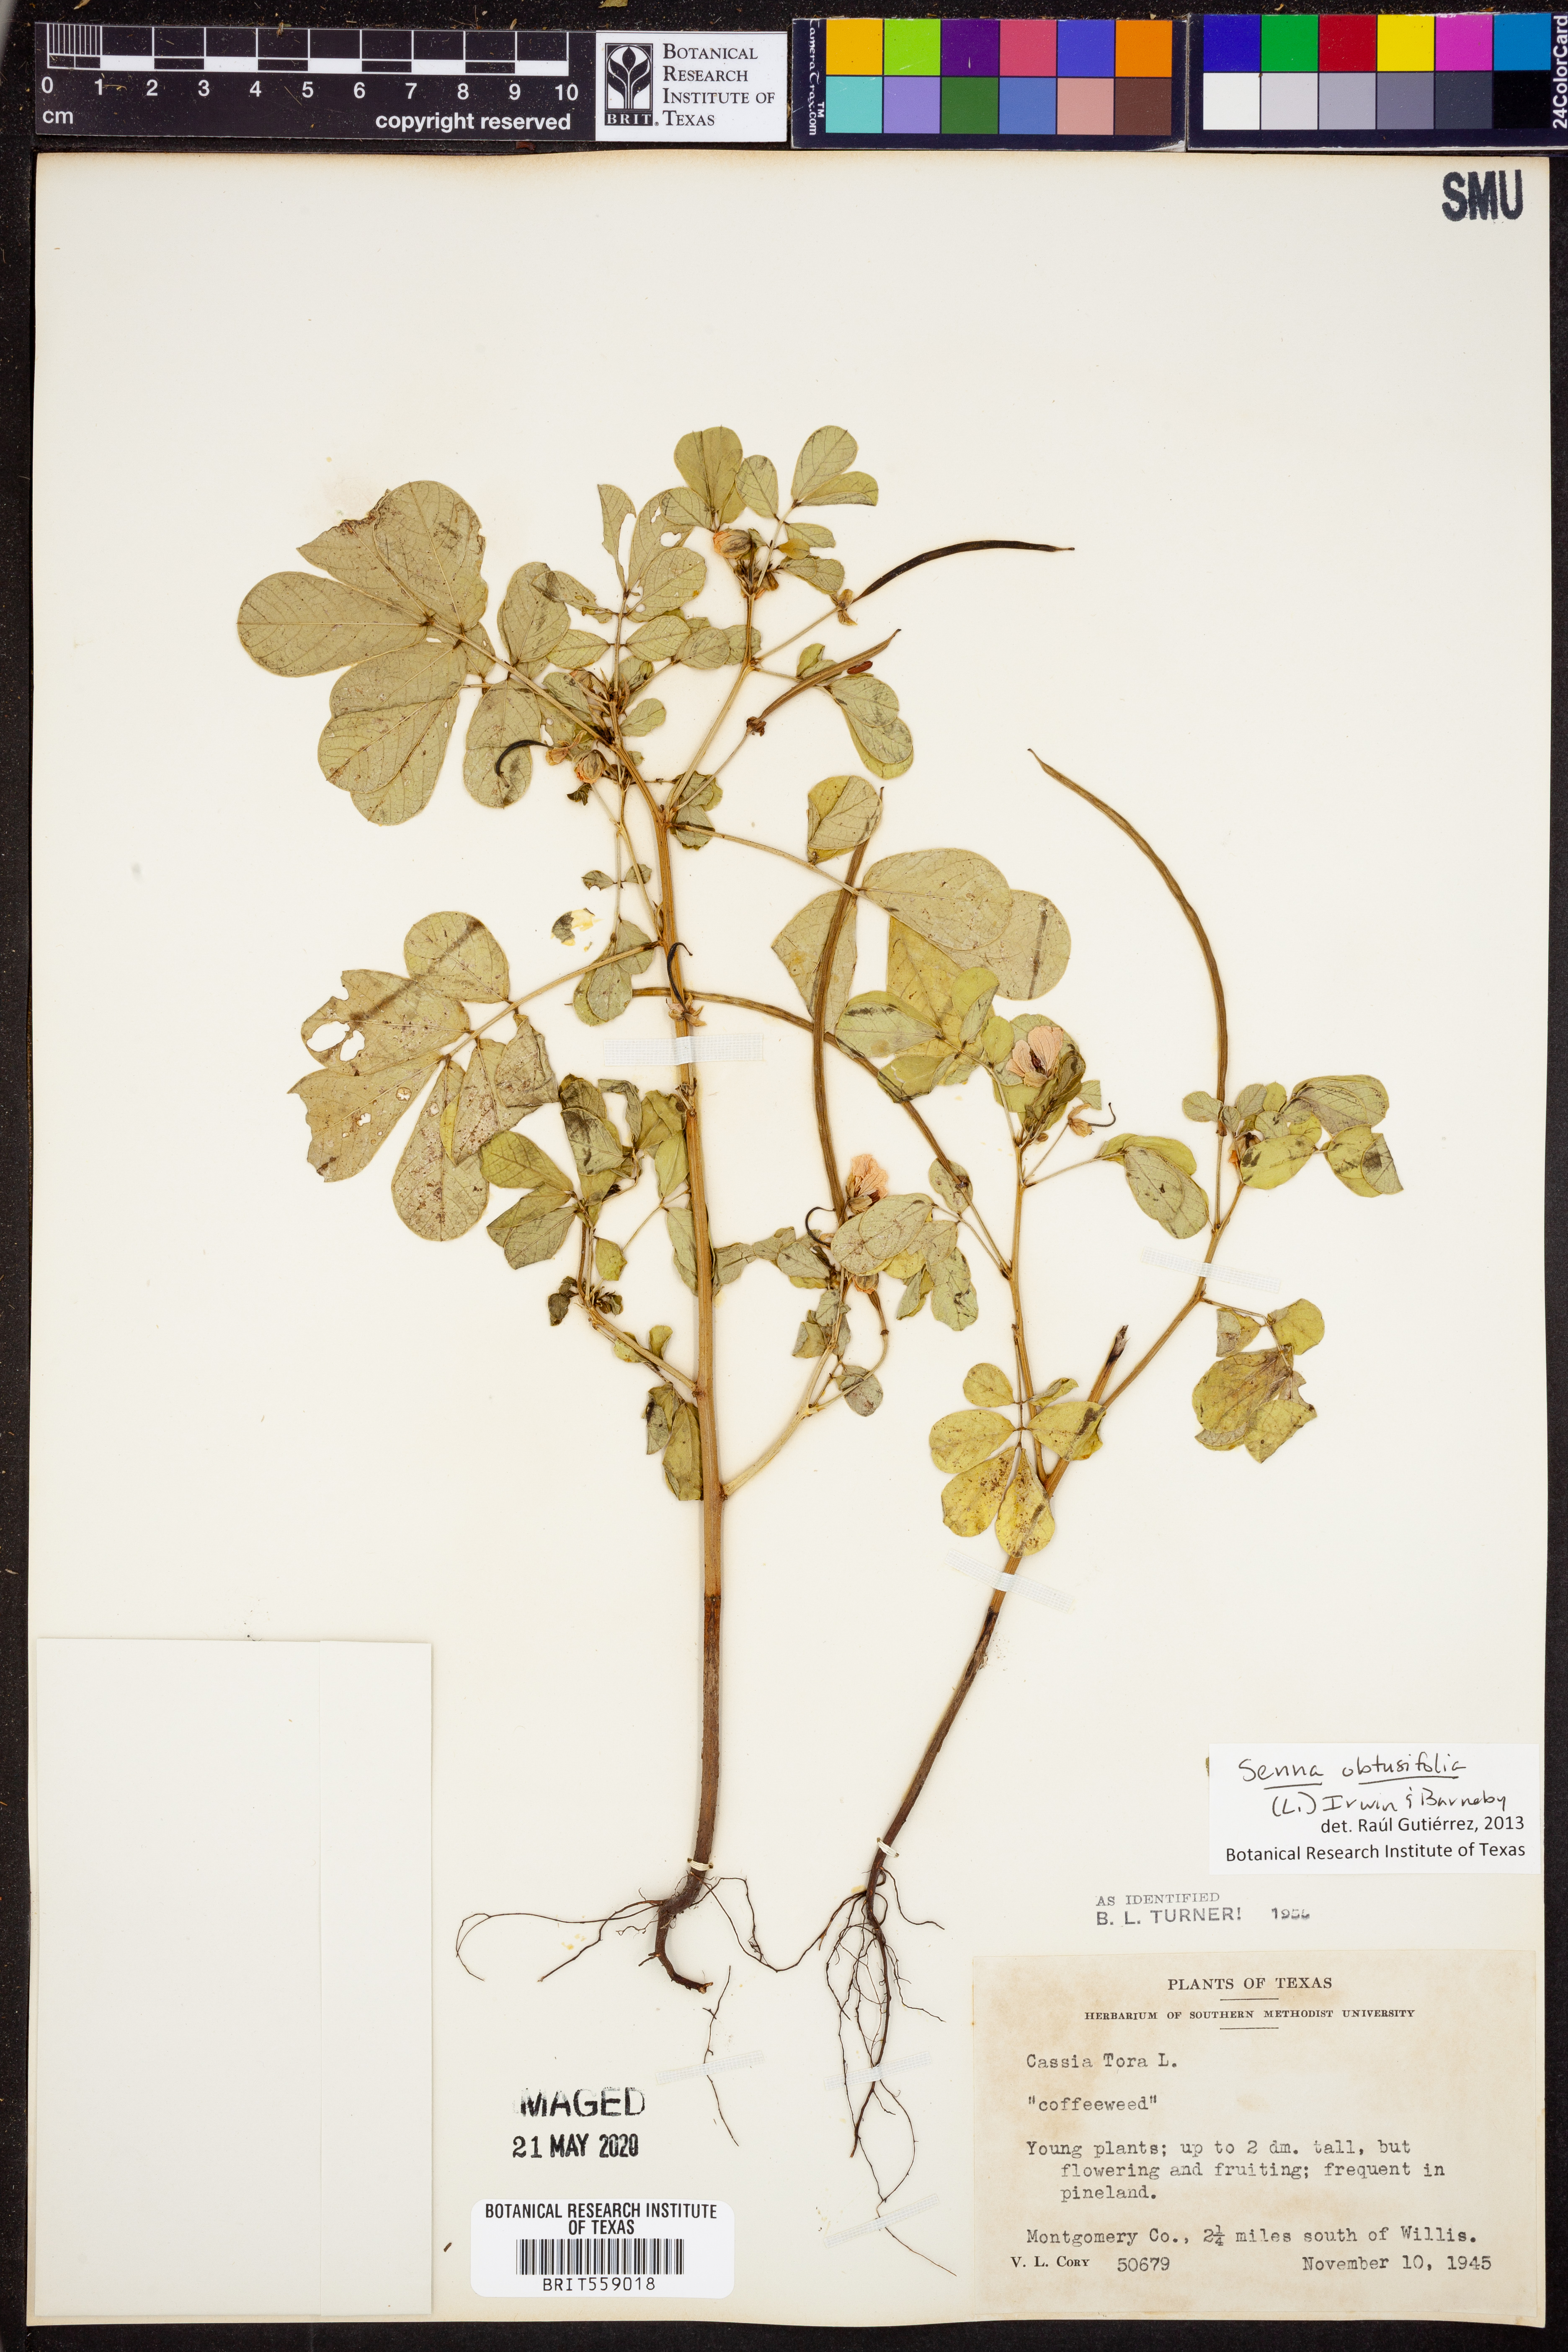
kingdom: Plantae
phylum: Tracheophyta
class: Magnoliopsida
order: Fabales
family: Fabaceae
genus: Senna
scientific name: Senna obtusifolia
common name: Java-bean
